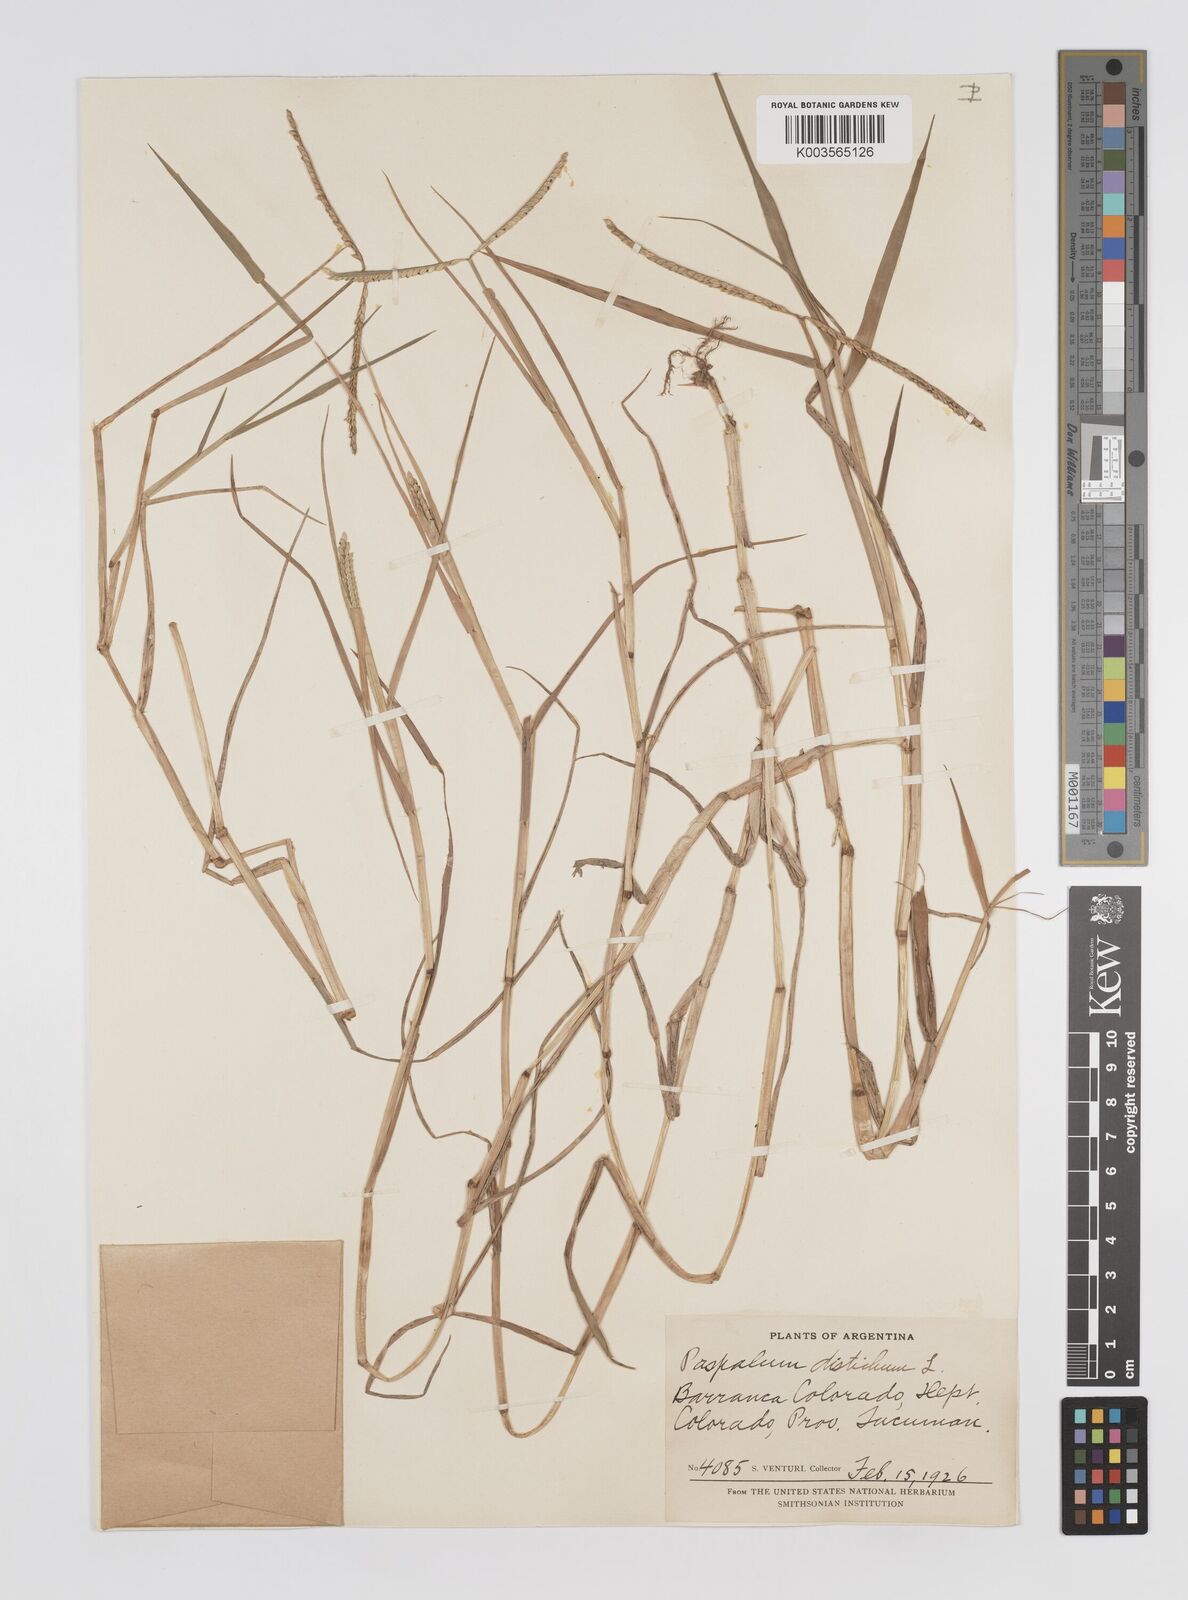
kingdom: Plantae
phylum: Tracheophyta
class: Liliopsida
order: Poales
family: Poaceae
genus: Paspalum
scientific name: Paspalum distichum
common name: Knotgrass
